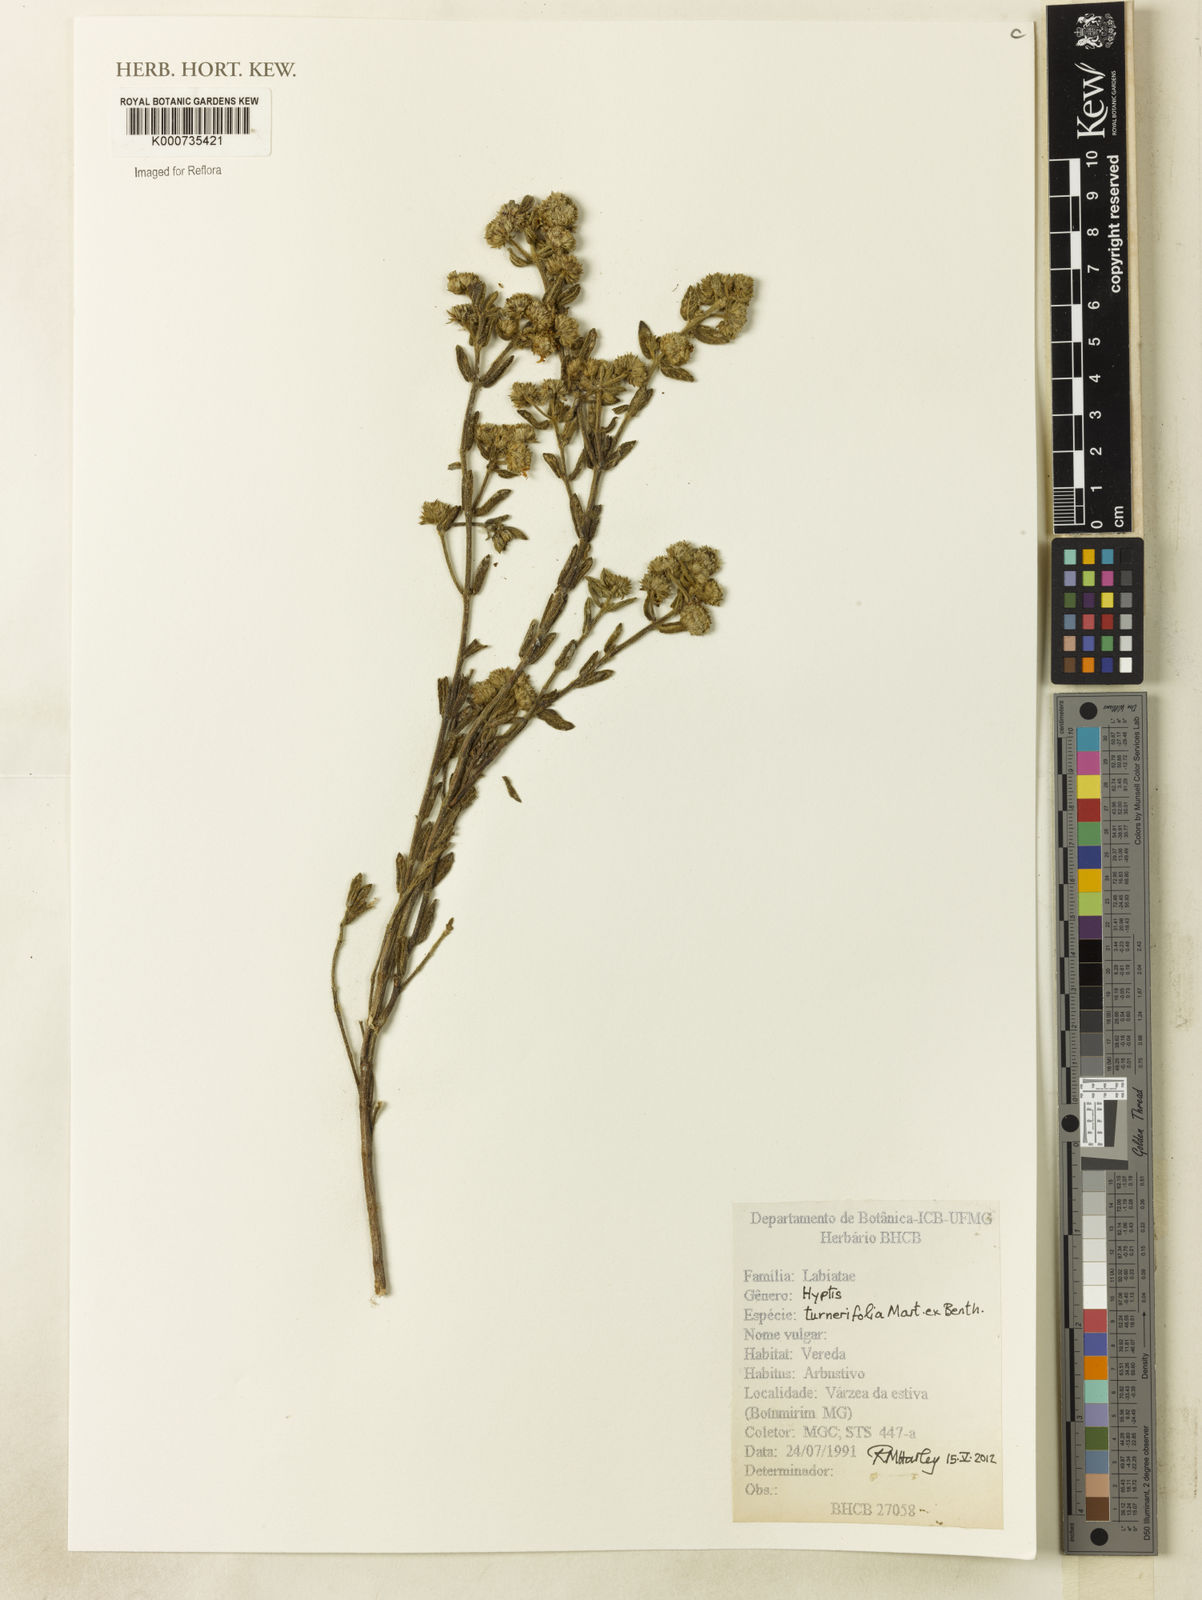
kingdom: Plantae
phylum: Tracheophyta
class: Magnoliopsida
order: Lamiales
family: Lamiaceae
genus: Hyptis
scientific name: Hyptis turnerifolia
